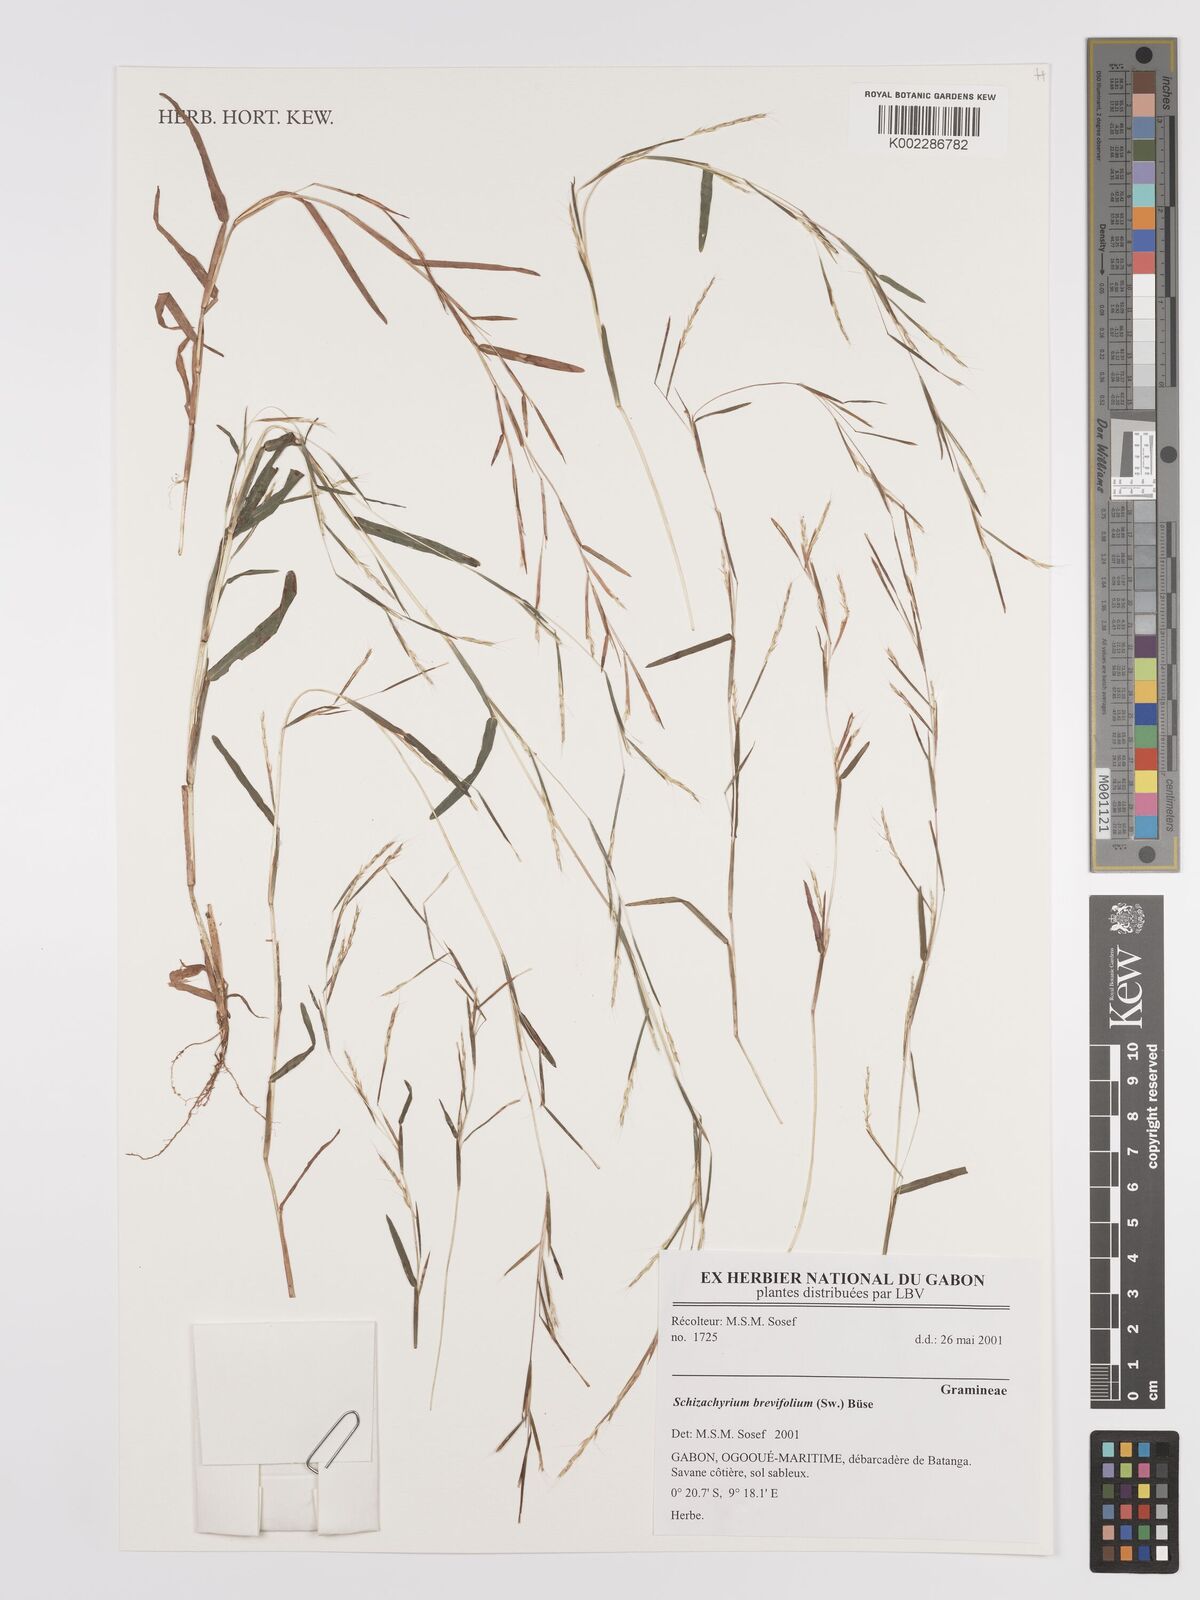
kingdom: Plantae
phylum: Tracheophyta
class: Liliopsida
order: Poales
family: Poaceae
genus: Schizachyrium
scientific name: Schizachyrium brevifolium
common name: Serillo dulce
